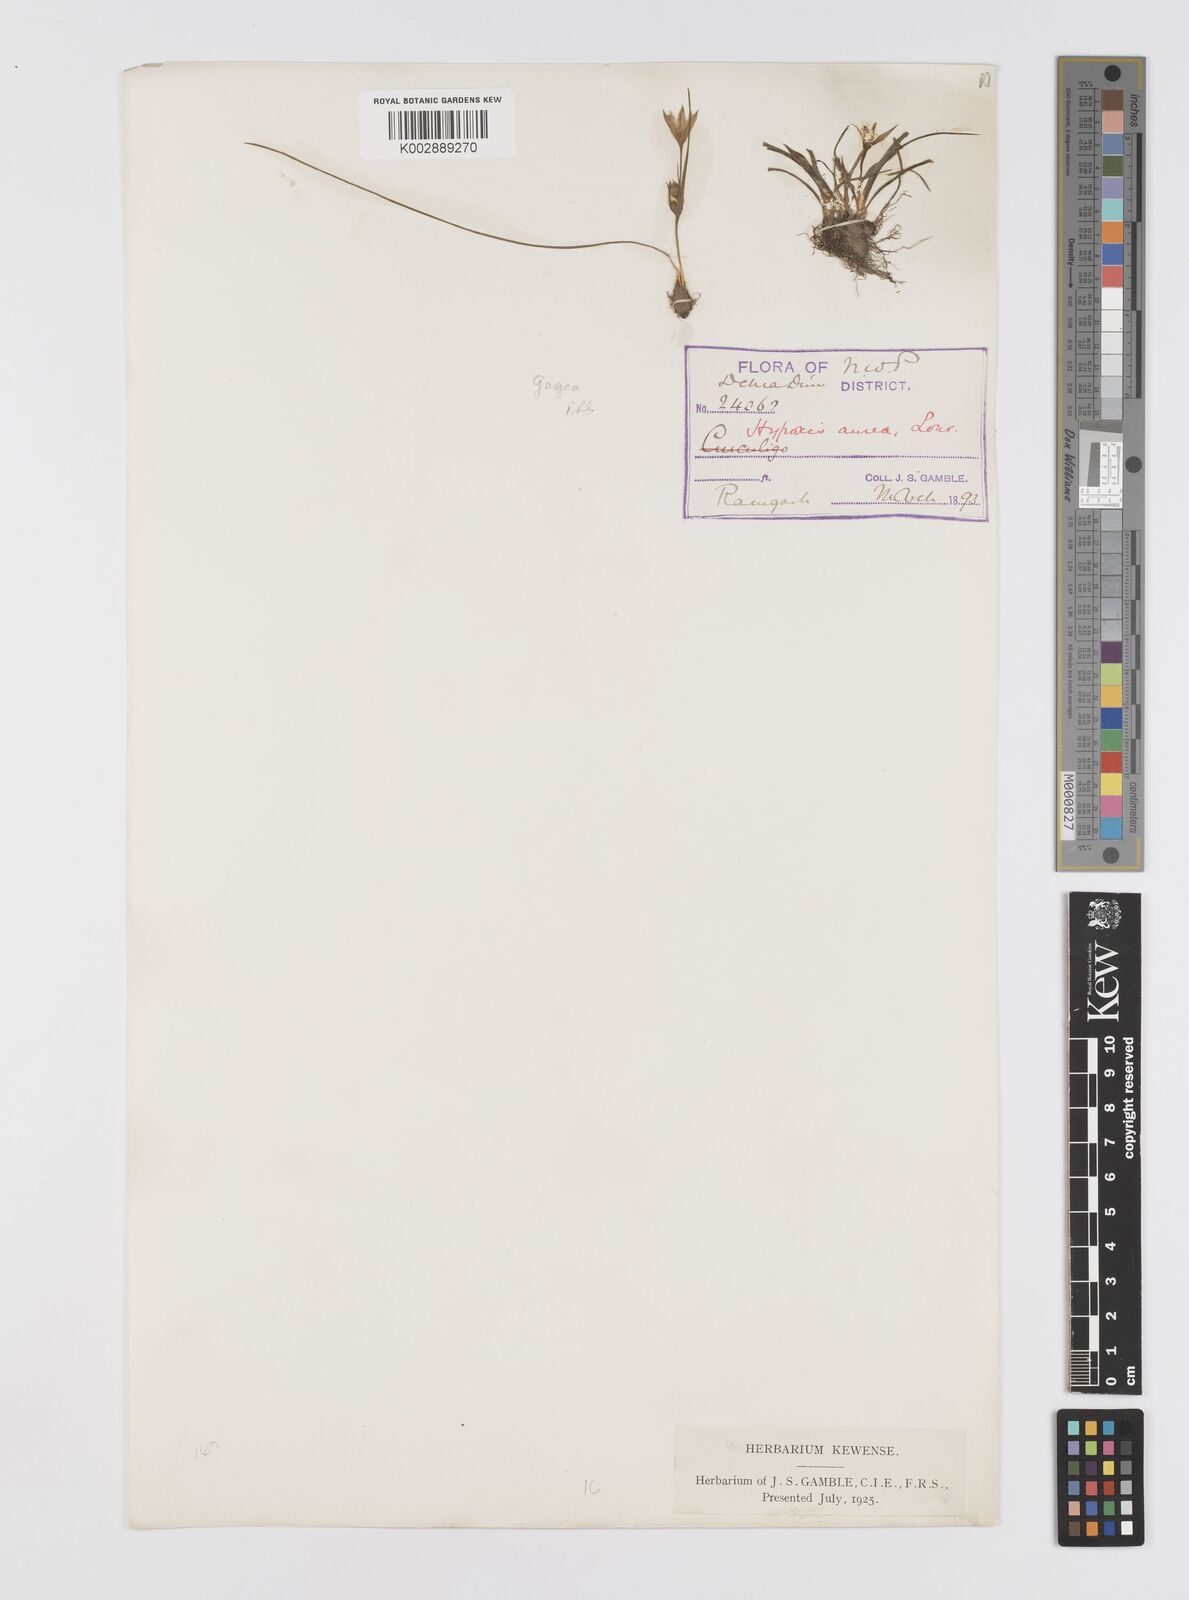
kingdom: Plantae
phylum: Tracheophyta
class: Liliopsida
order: Liliales
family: Liliaceae
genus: Gagea
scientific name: Gagea reticulata
